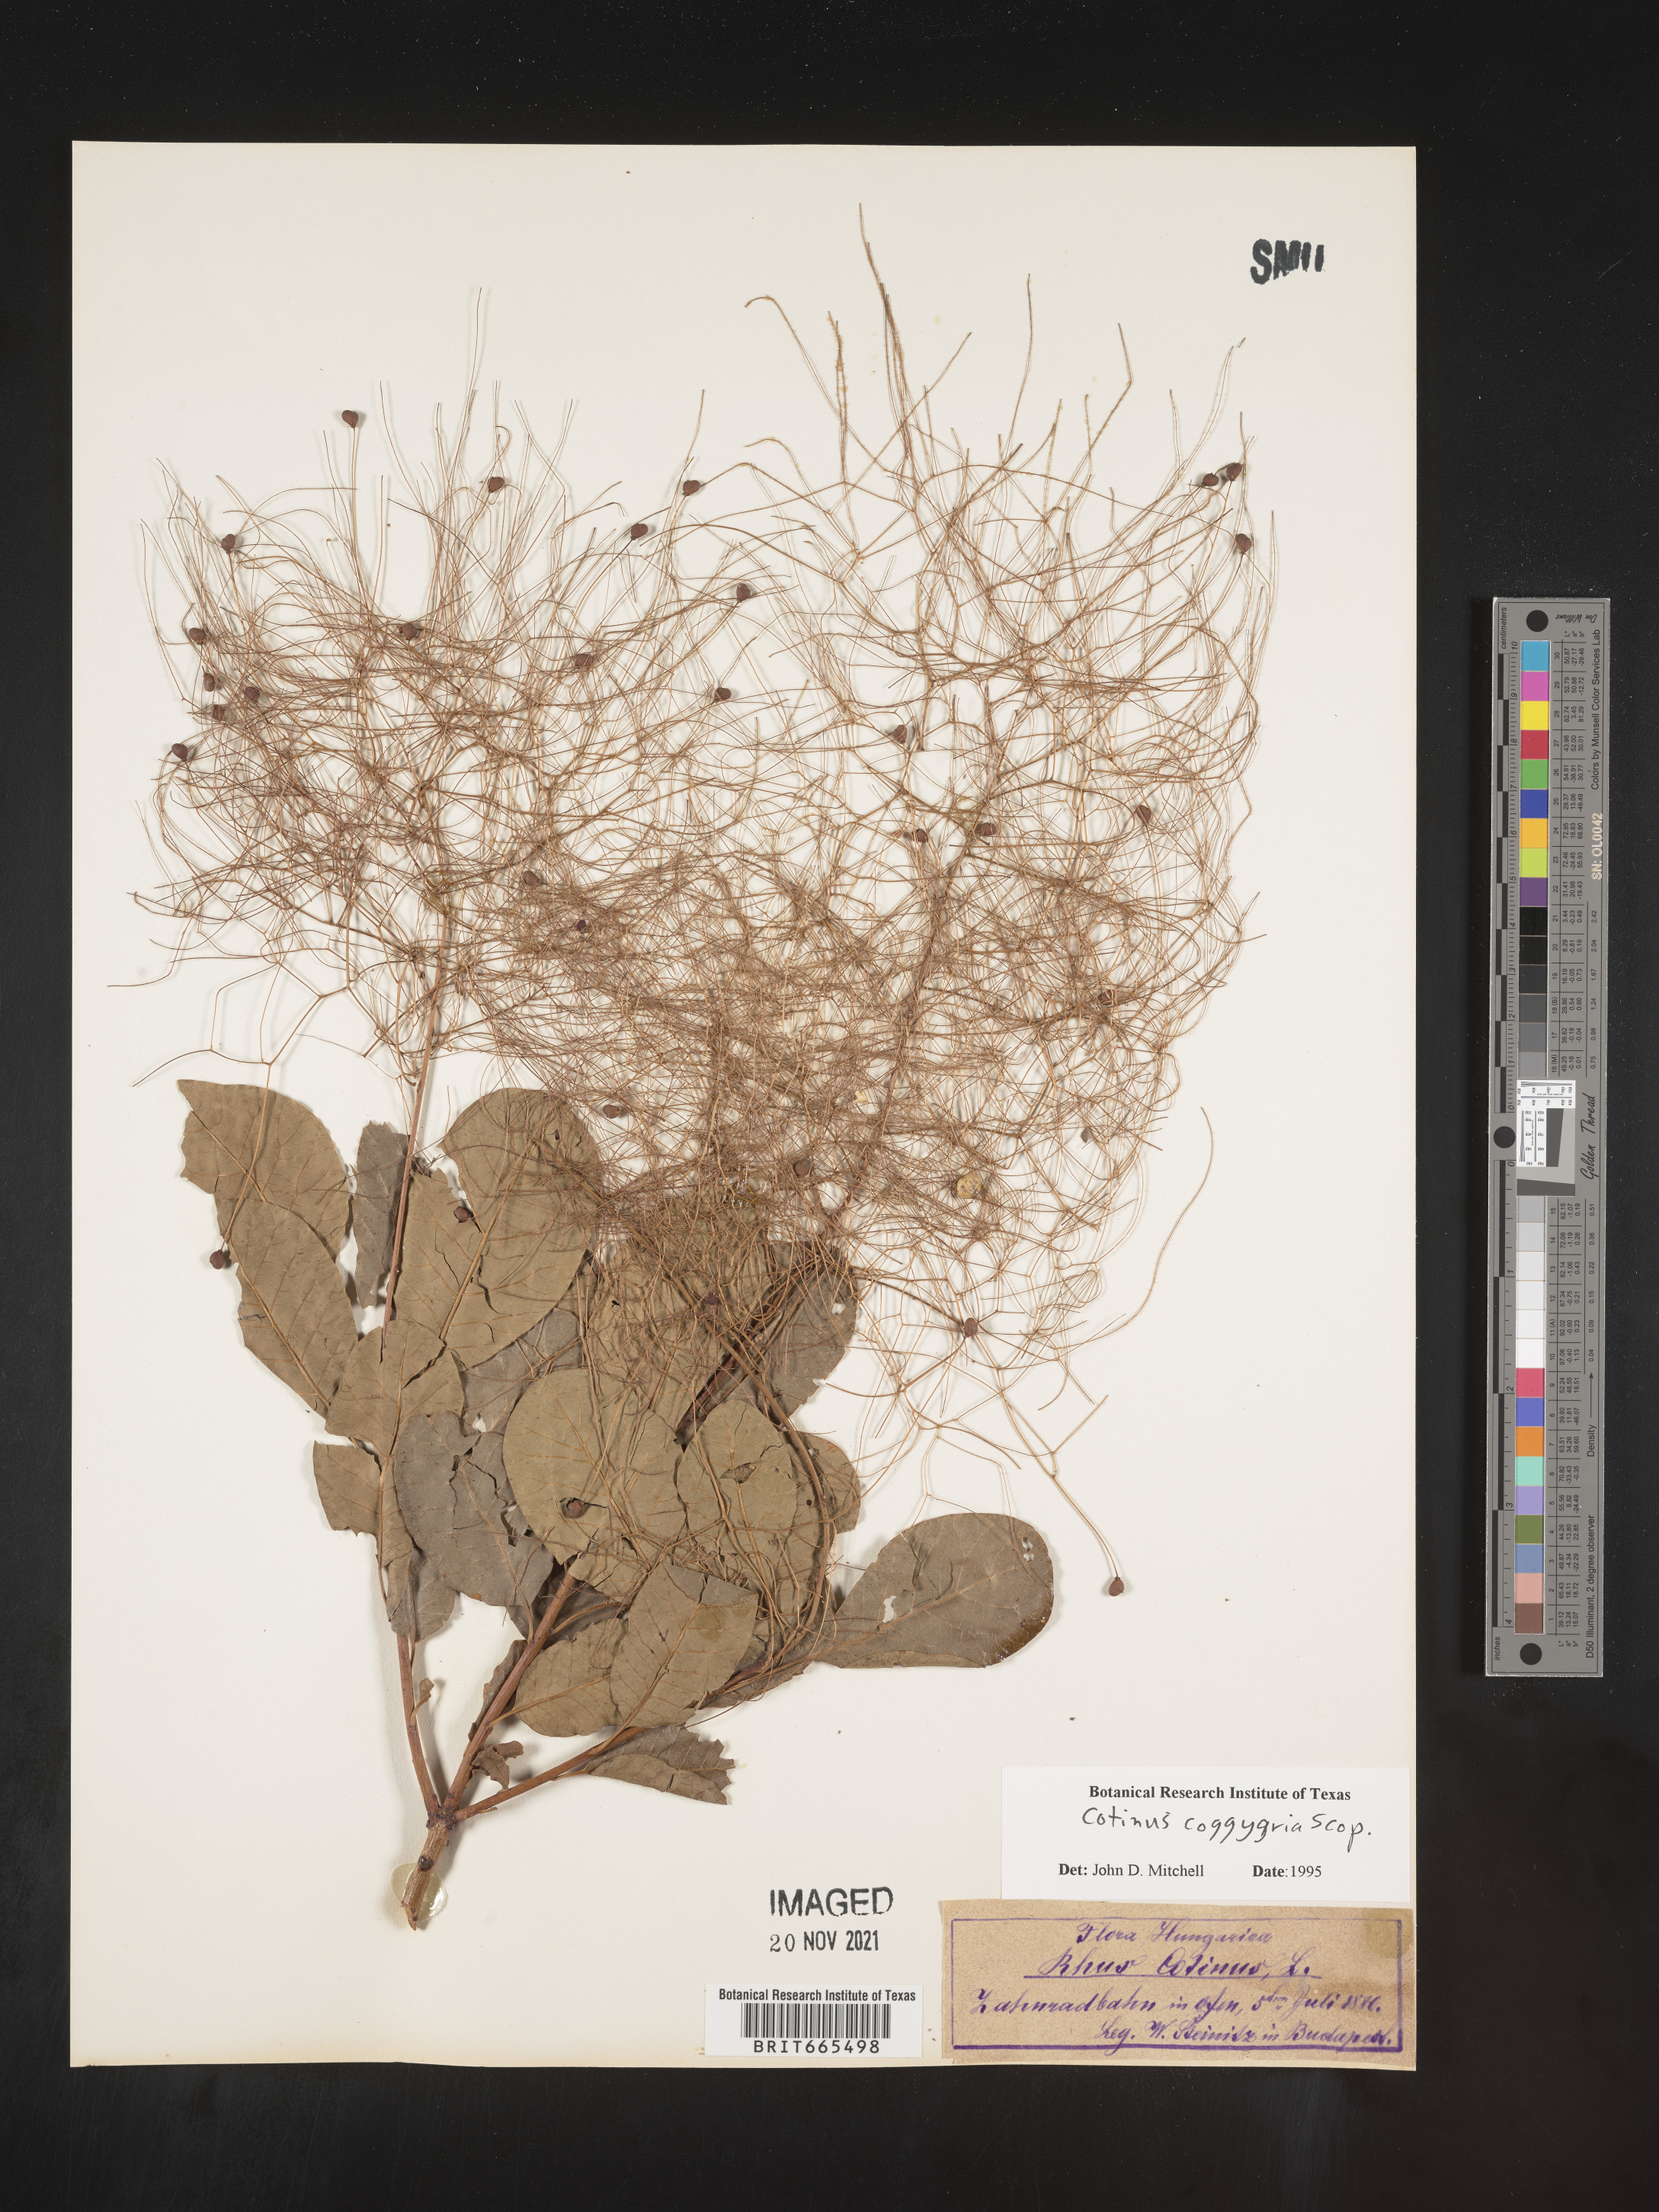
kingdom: Plantae
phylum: Tracheophyta
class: Magnoliopsida
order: Sapindales
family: Anacardiaceae
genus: Cotinus
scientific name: Cotinus
